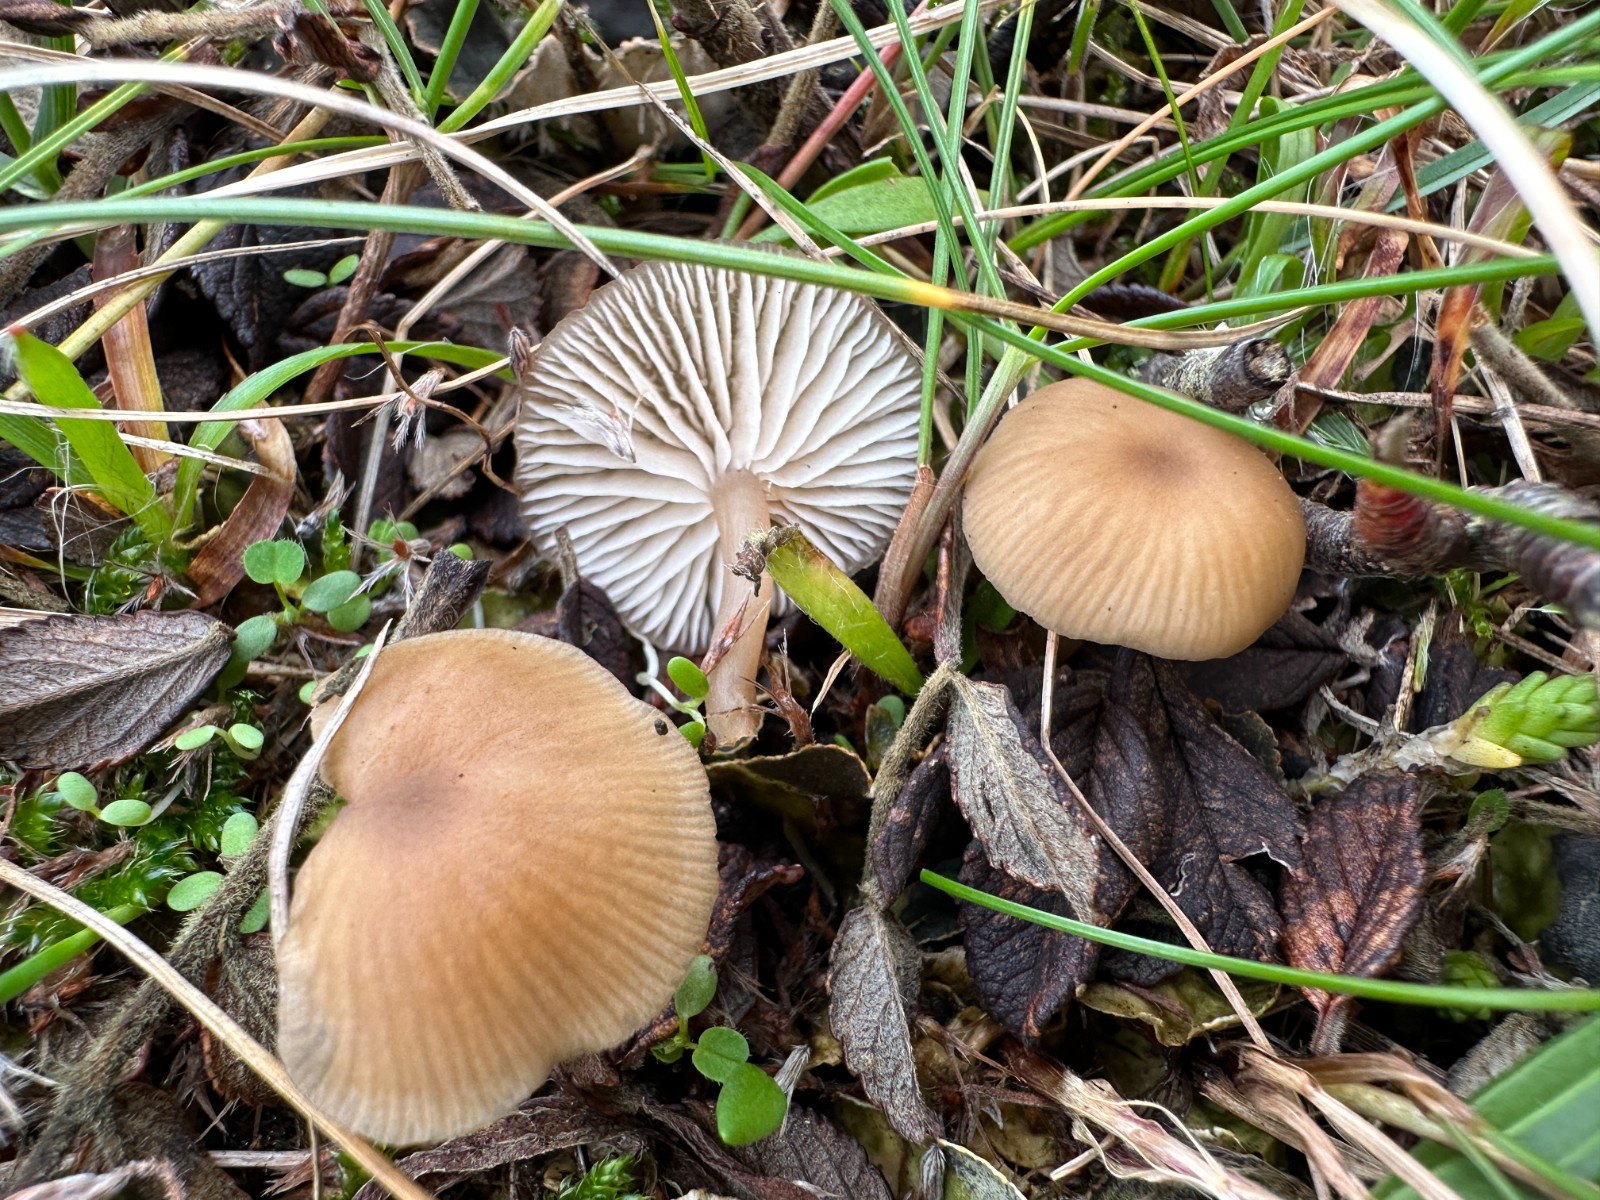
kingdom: Fungi
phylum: Basidiomycota
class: Agaricomycetes
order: Agaricales
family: Tricholomataceae
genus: Gamundia
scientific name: Gamundia xerophila
